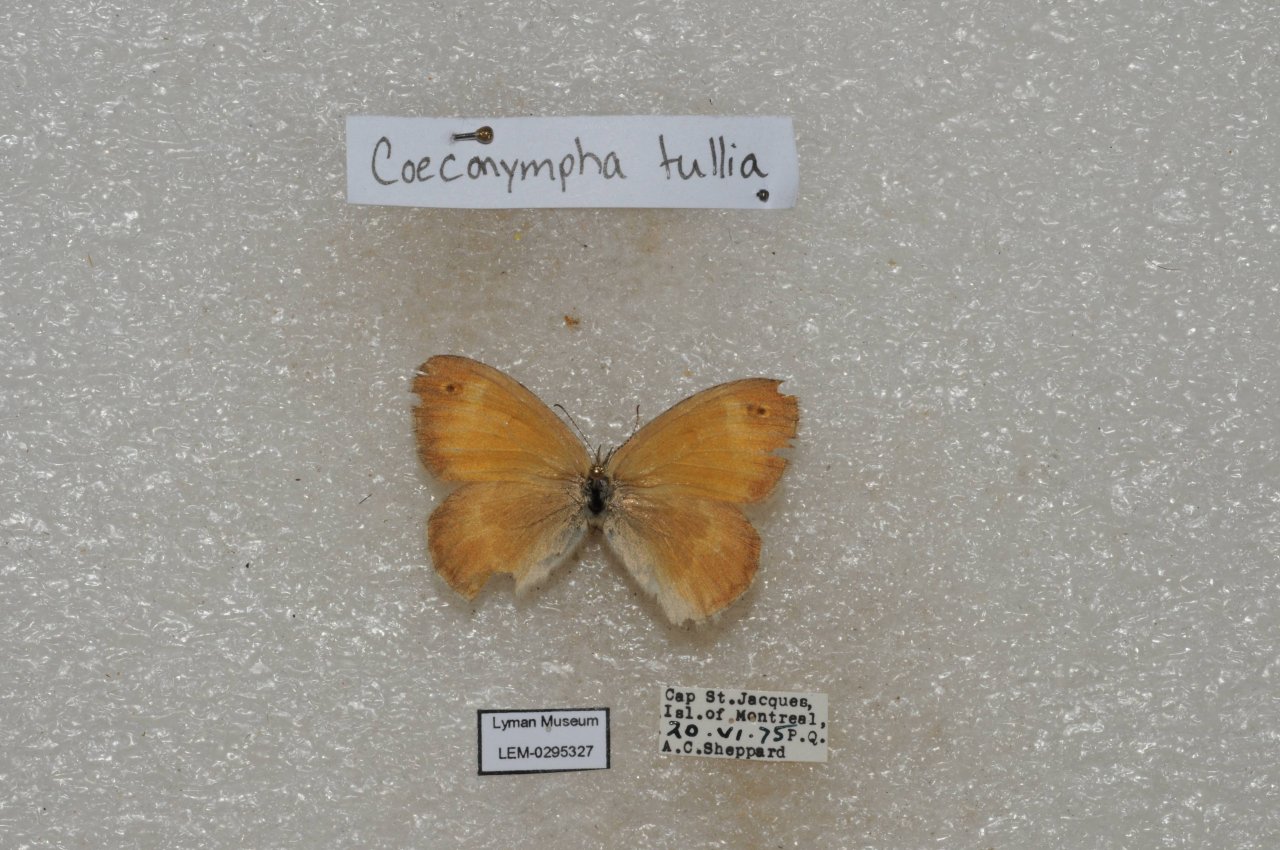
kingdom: Animalia
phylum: Arthropoda
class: Insecta
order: Lepidoptera
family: Nymphalidae
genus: Coenonympha
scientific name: Coenonympha tullia
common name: Large Heath
